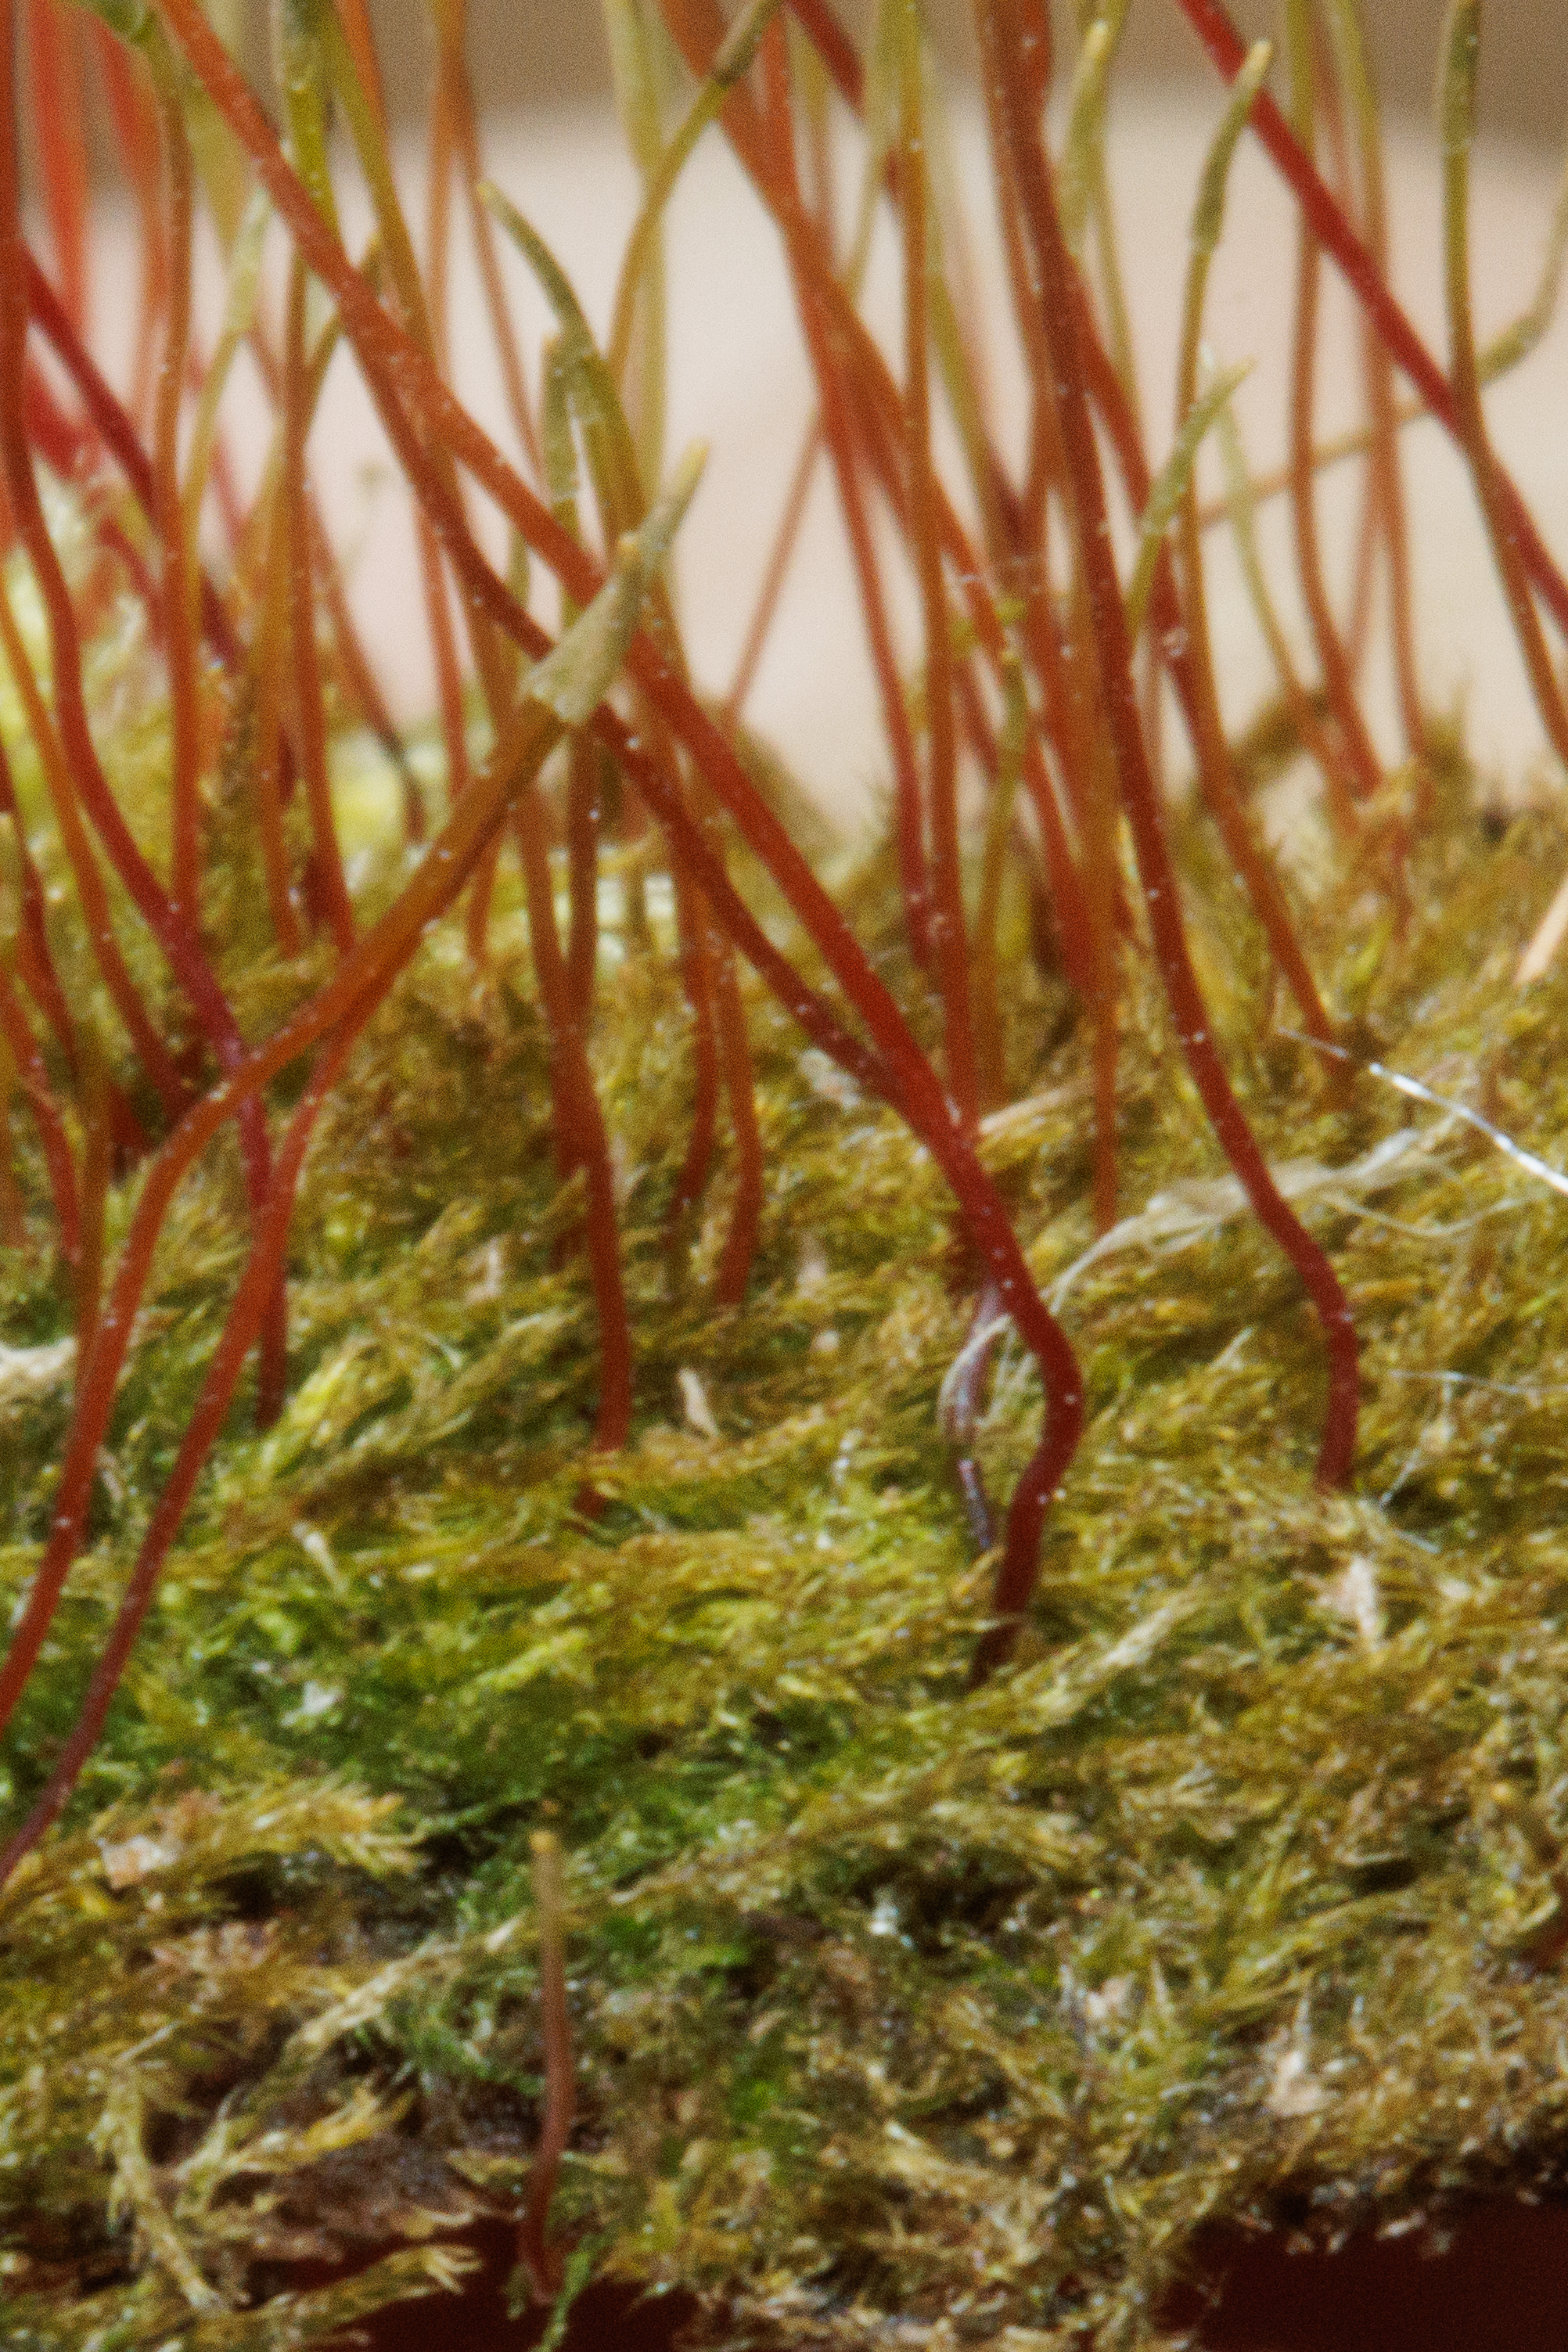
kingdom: Plantae
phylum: Bryophyta
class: Bryopsida
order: Hypnales
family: Amblystegiaceae
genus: Amblystegium
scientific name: Amblystegium serpens
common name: Almindelig krybmos
